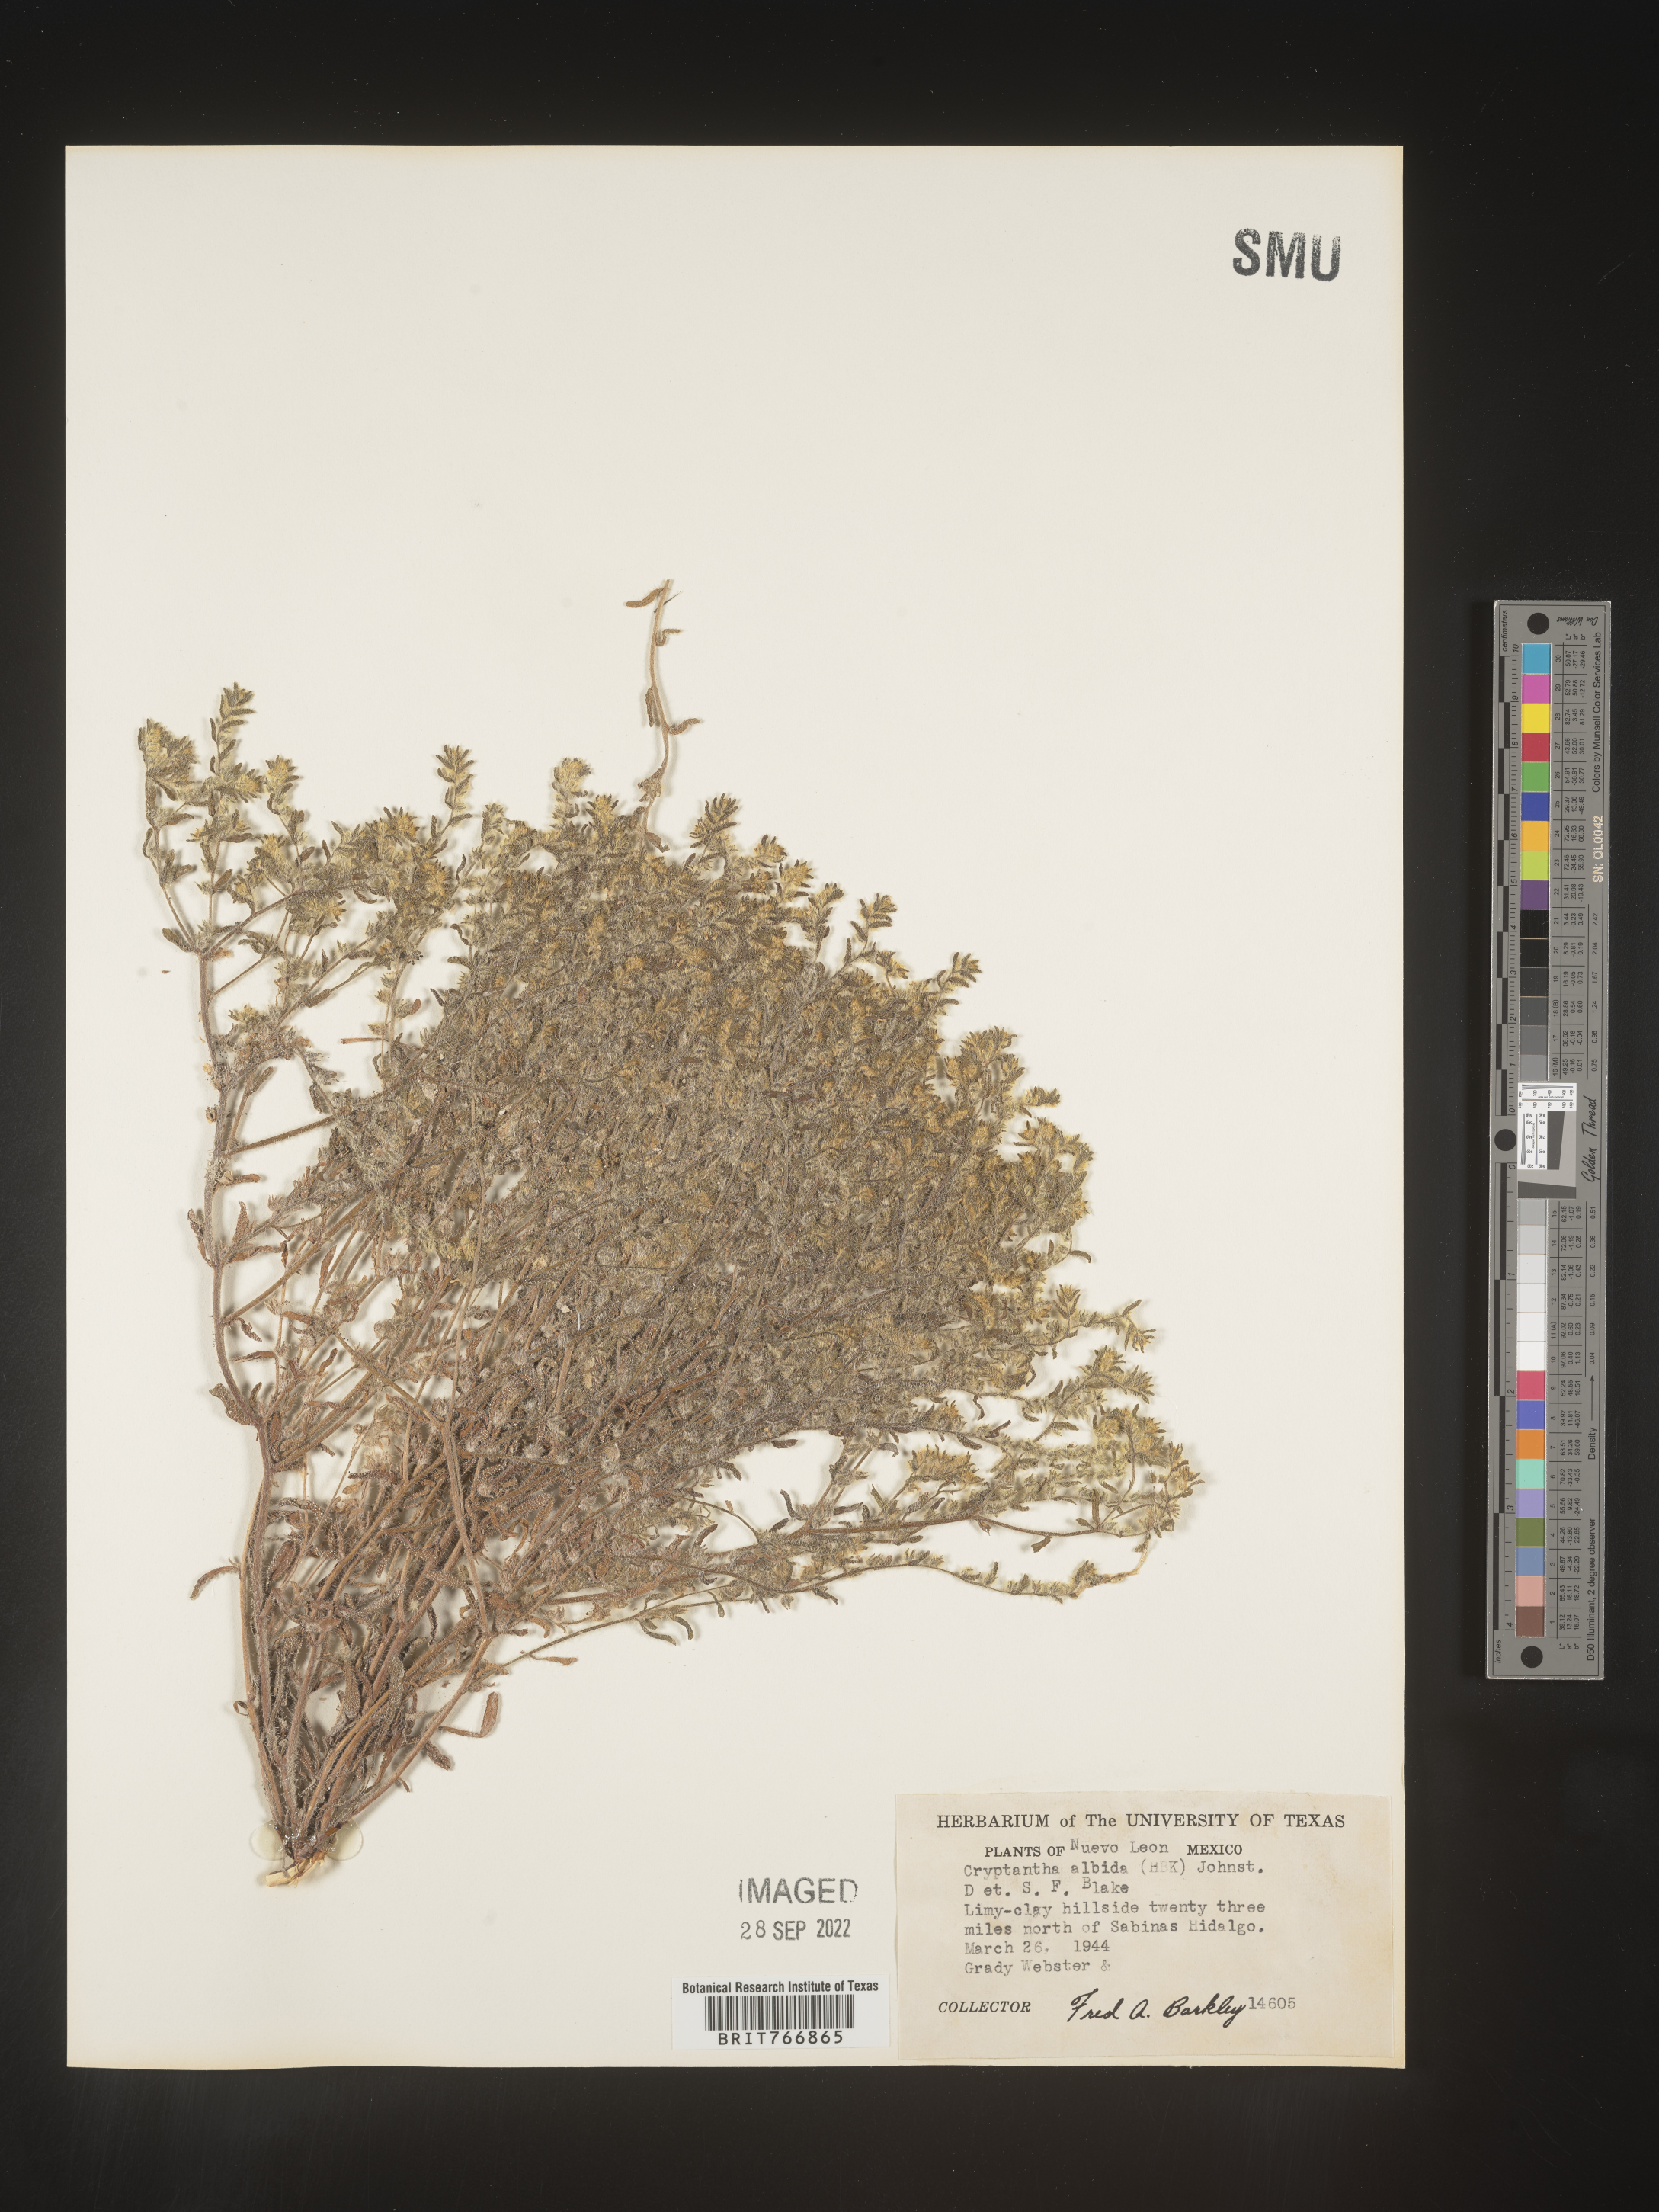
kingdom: Plantae
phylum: Tracheophyta
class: Magnoliopsida
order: Boraginales
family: Boraginaceae
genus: Cryptantha
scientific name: Cryptantha
